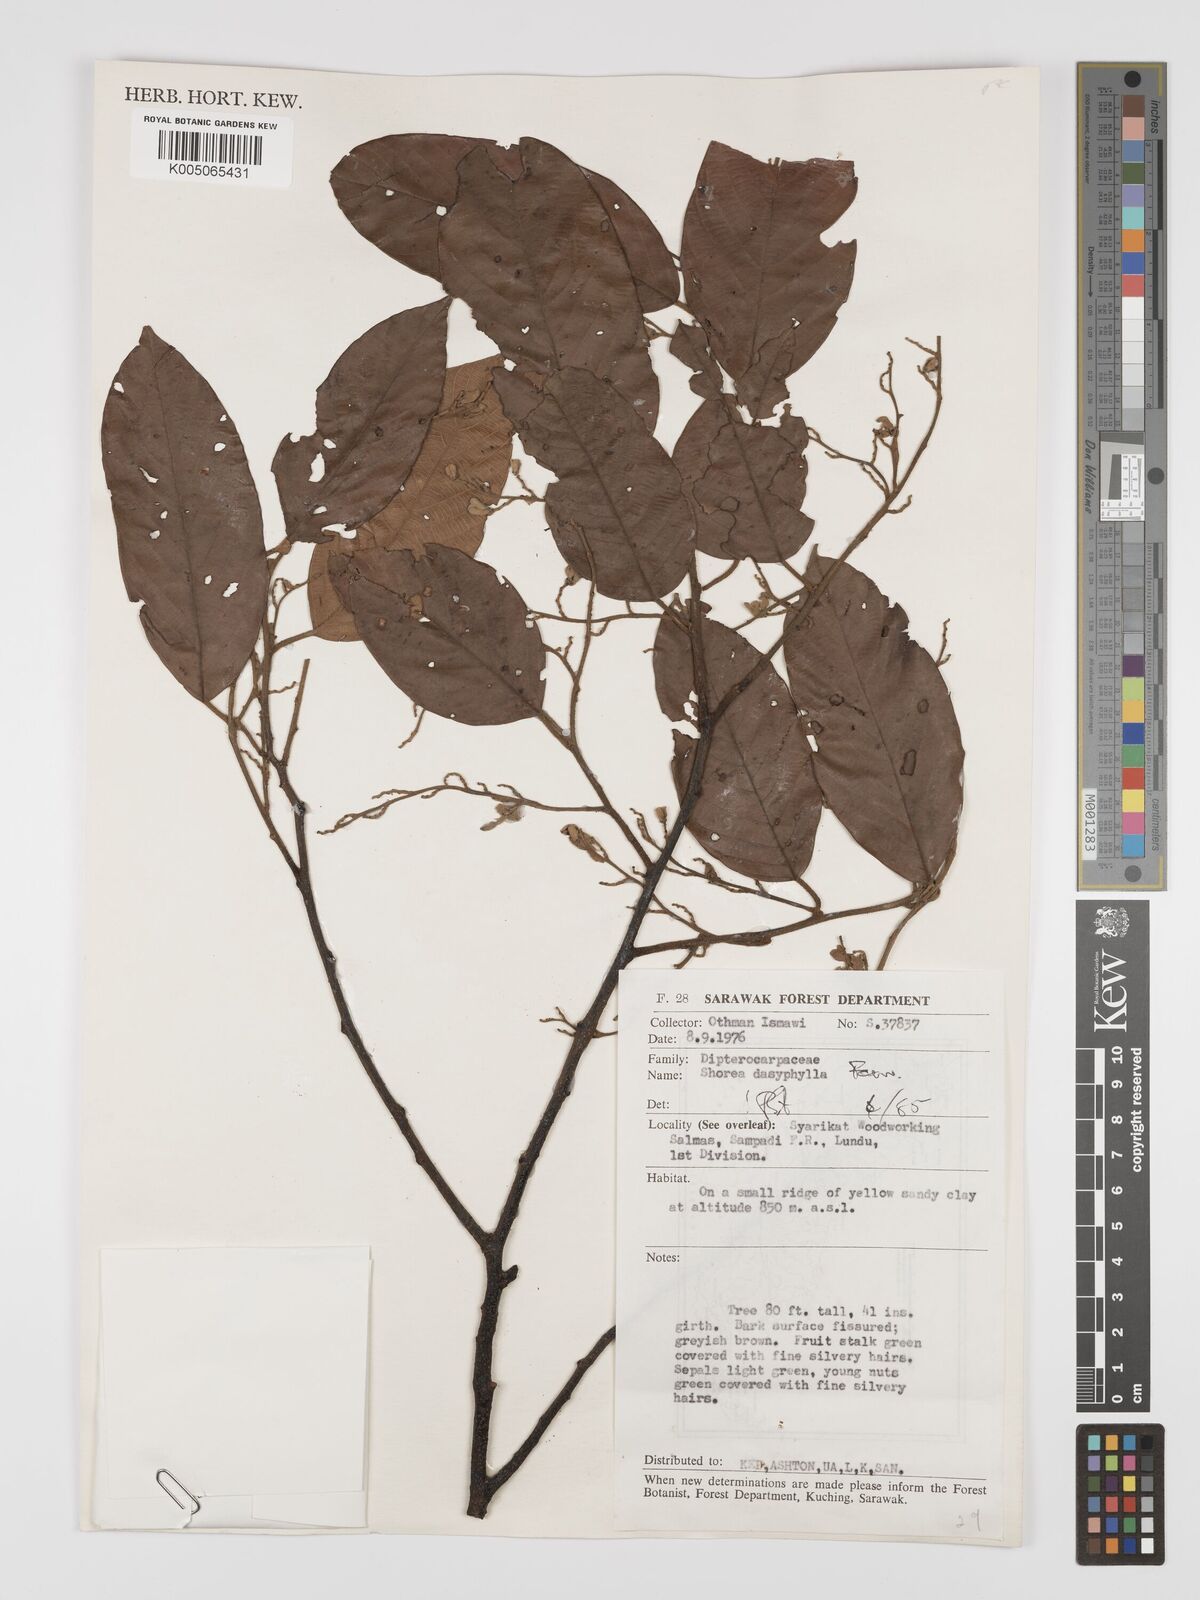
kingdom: Plantae
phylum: Tracheophyta
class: Magnoliopsida
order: Malvales
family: Dipterocarpaceae
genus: Shorea
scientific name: Shorea dasyphylla
